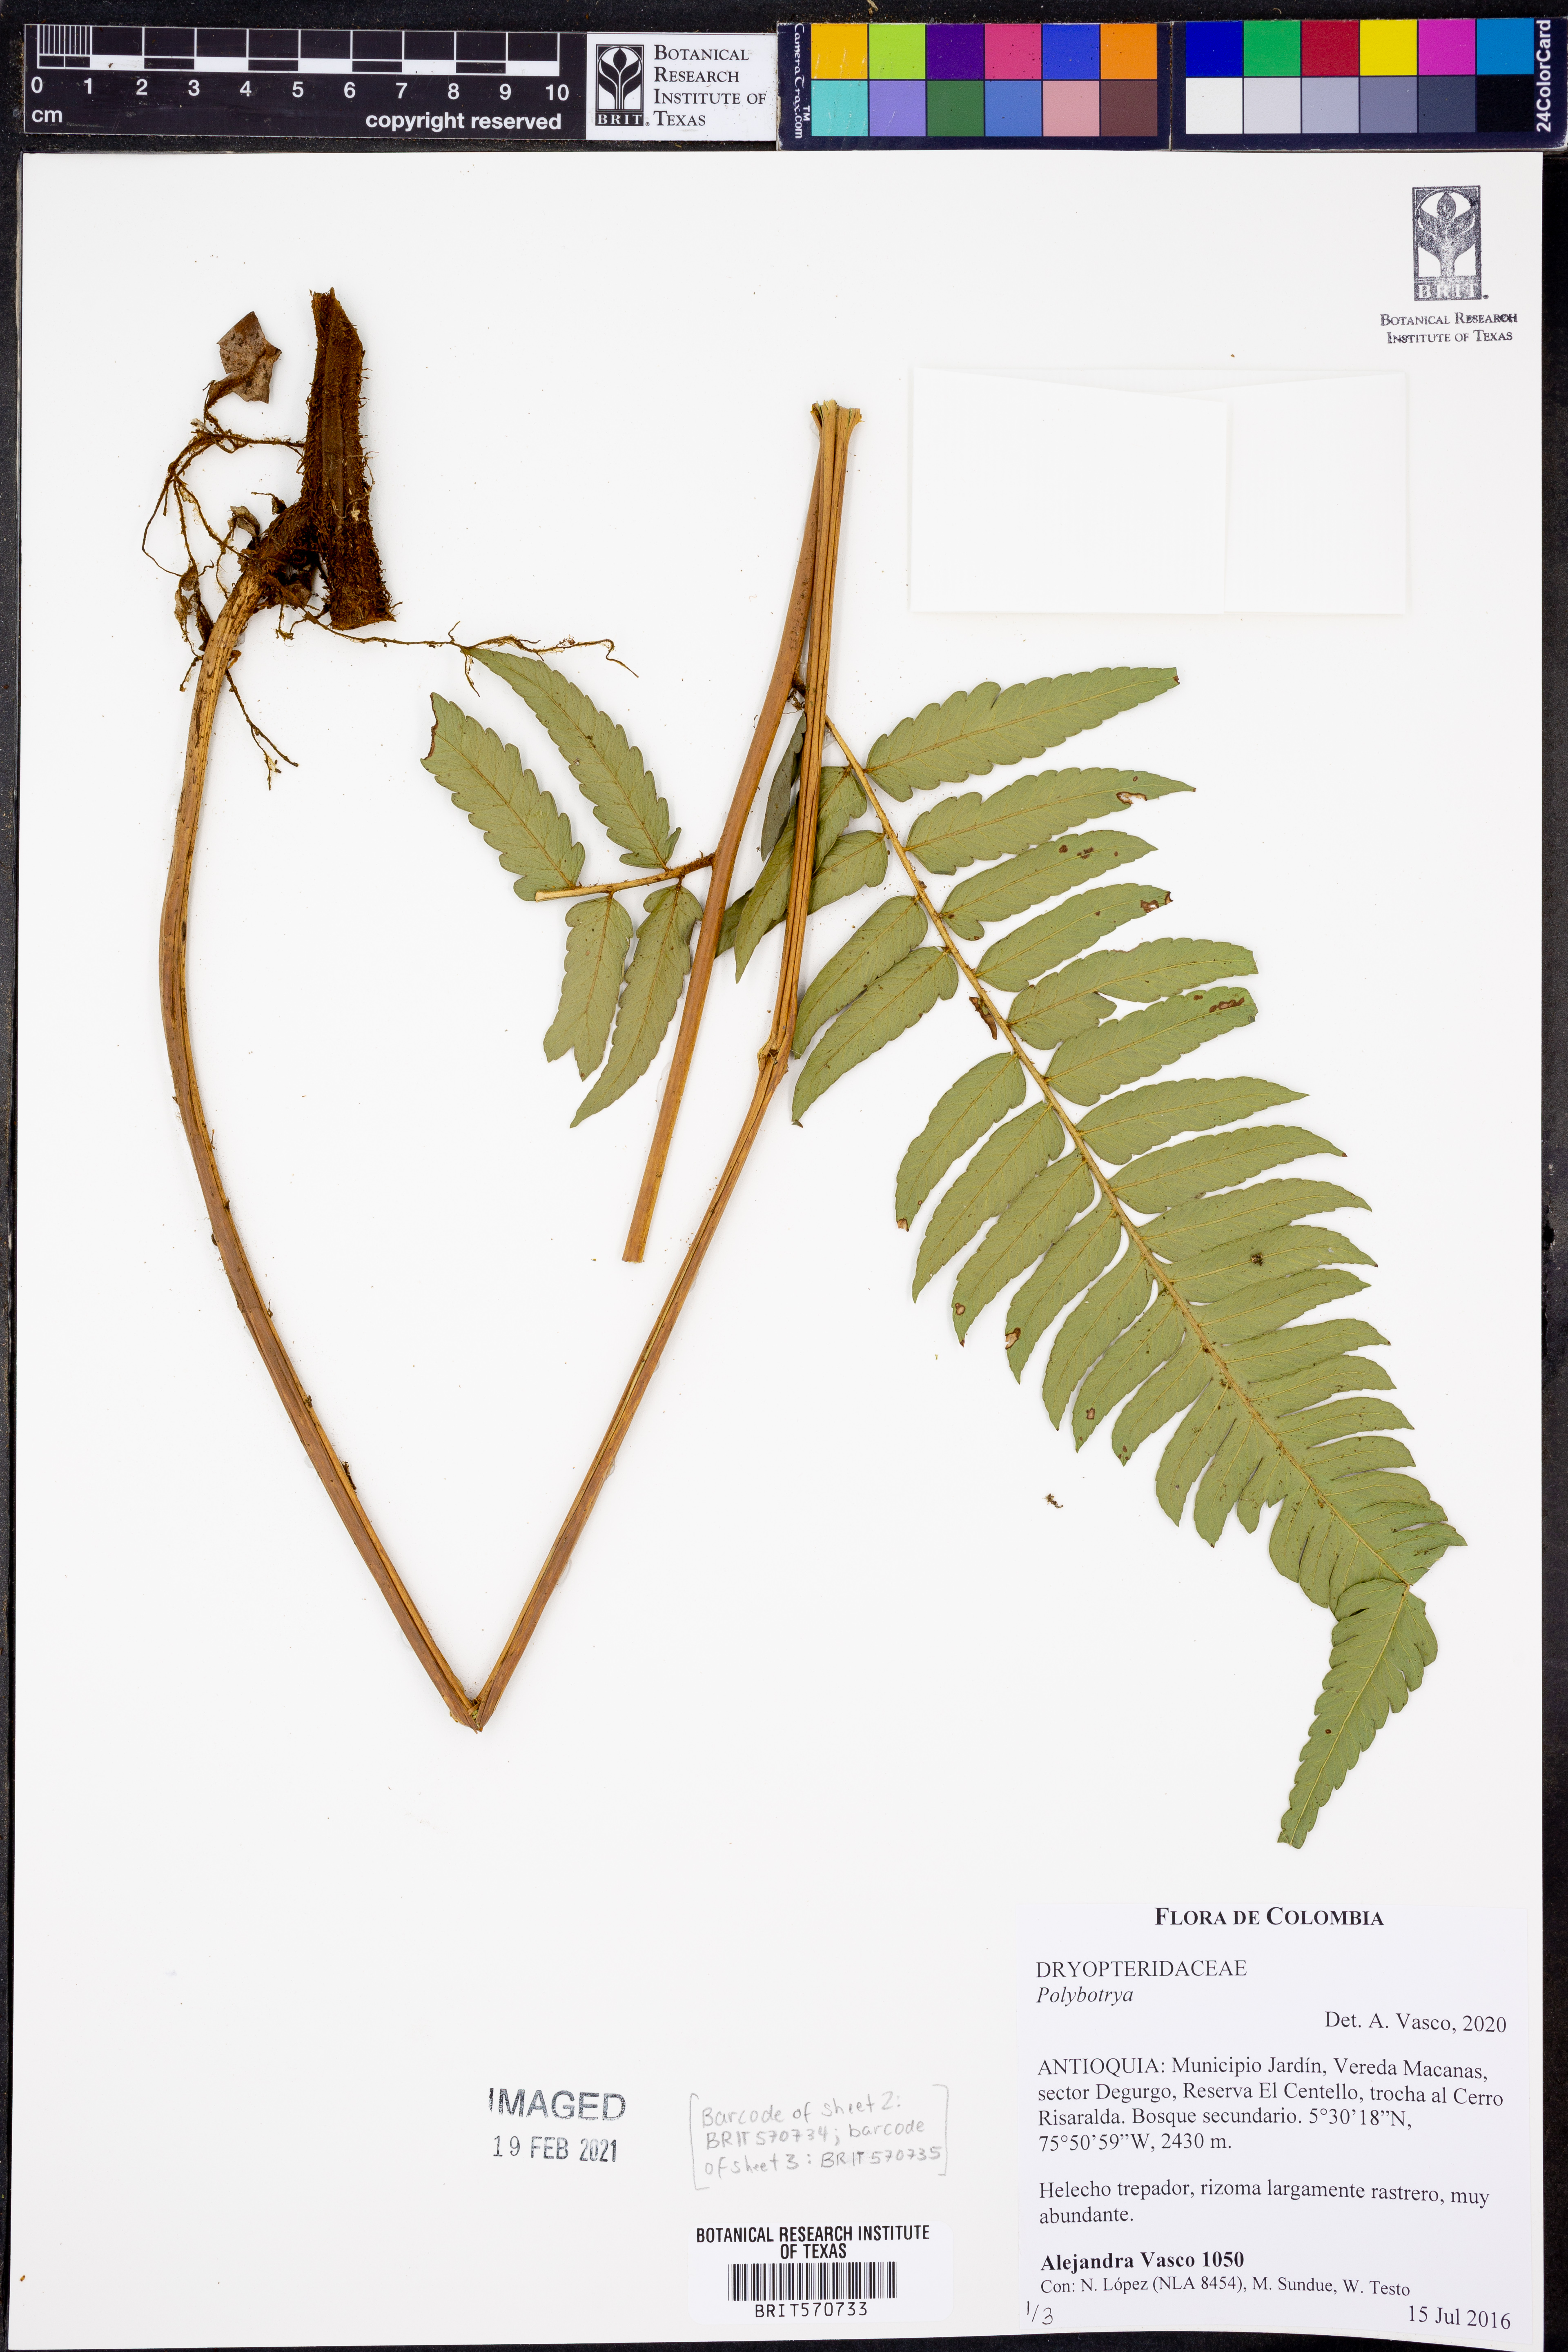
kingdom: Plantae
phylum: Tracheophyta
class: Polypodiopsida
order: Polypodiales
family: Dryopteridaceae
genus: Polybotrya
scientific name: Polybotrya
